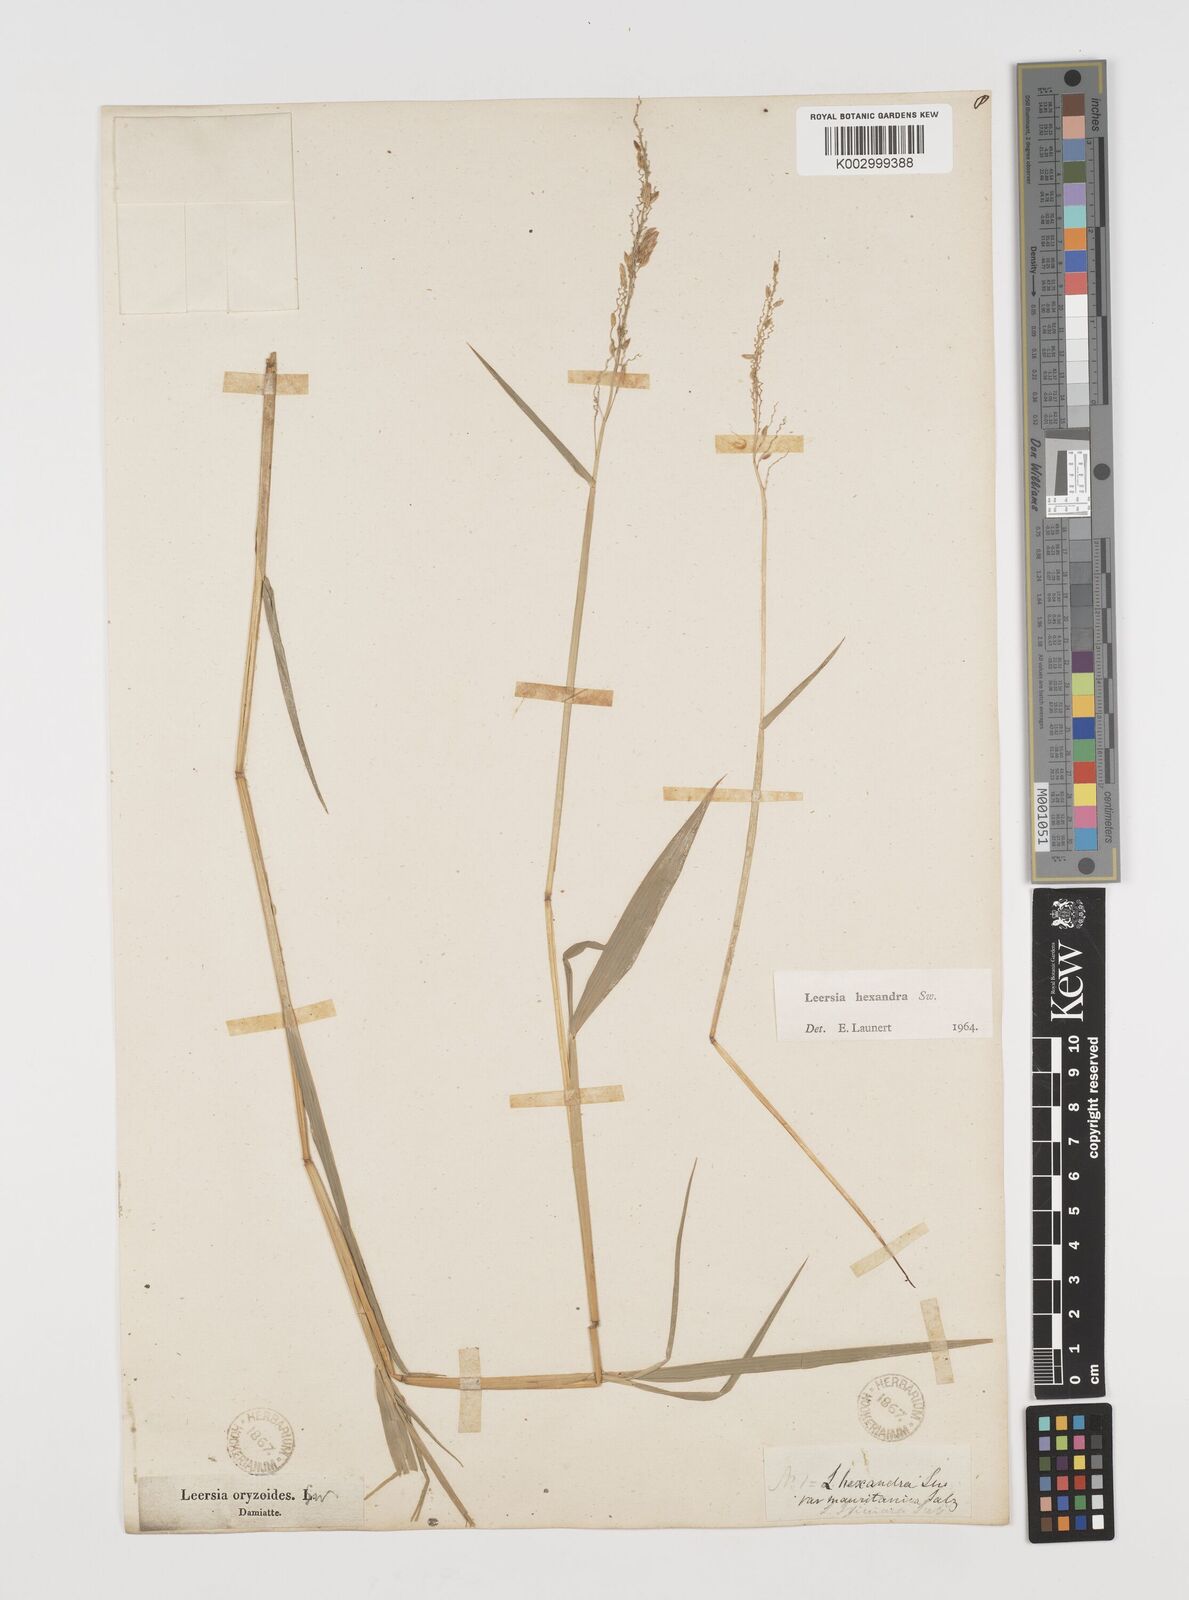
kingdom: Plantae
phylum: Tracheophyta
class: Liliopsida
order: Poales
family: Poaceae
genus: Leersia
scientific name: Leersia hexandra
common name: Southern cut grass
